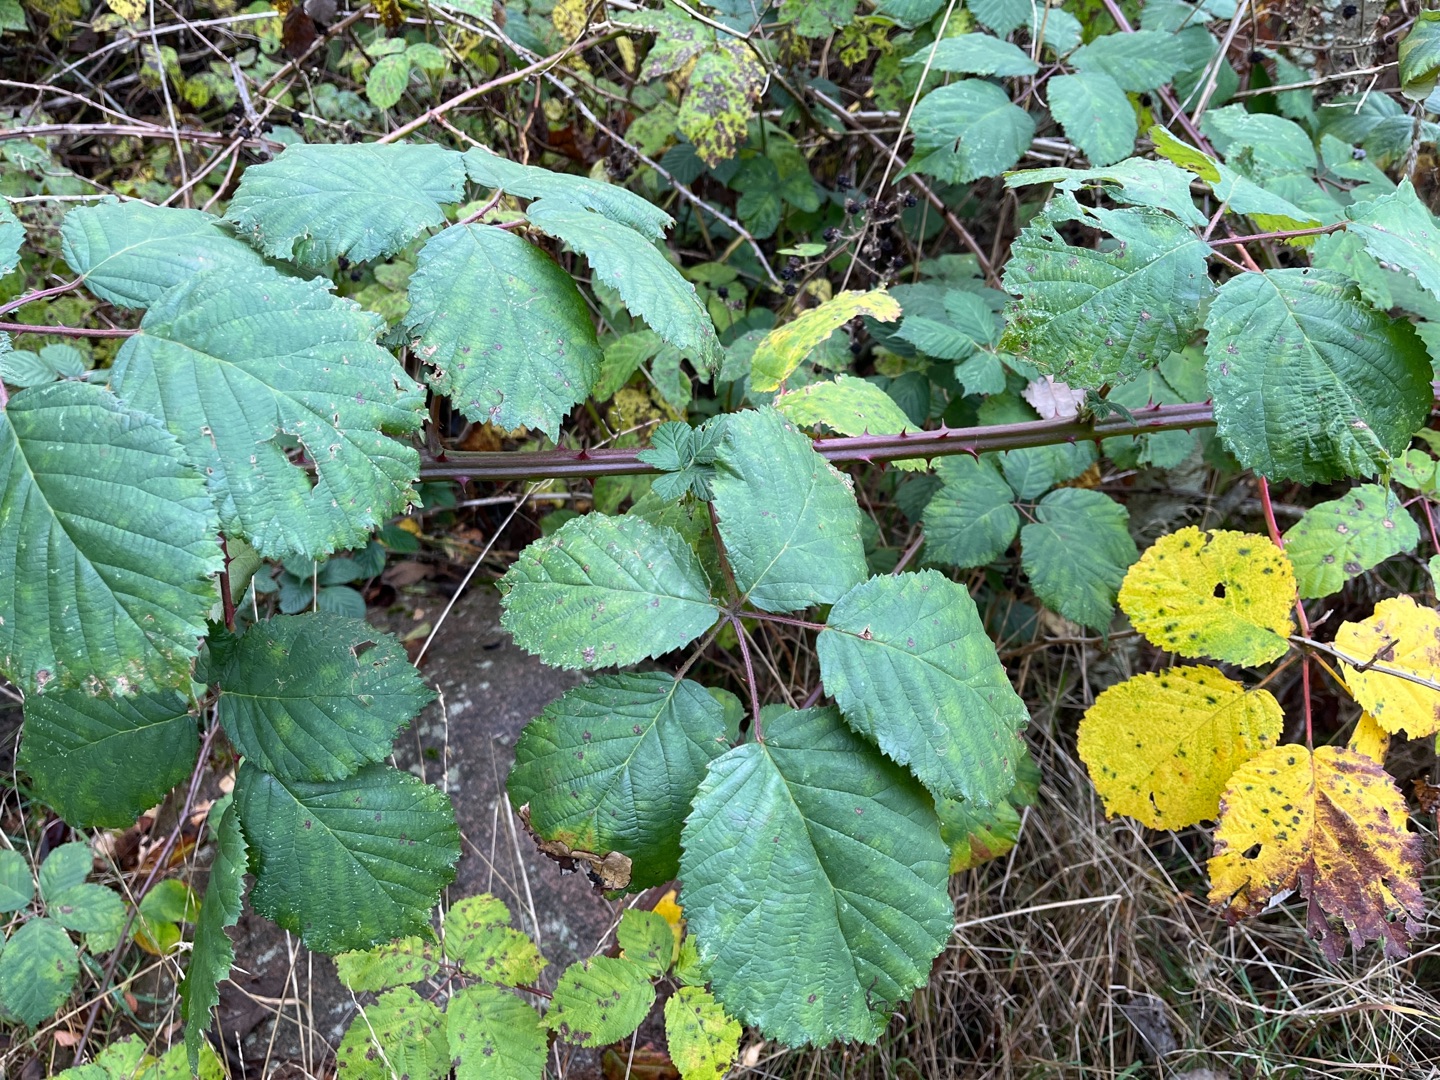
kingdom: Plantae
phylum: Tracheophyta
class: Magnoliopsida
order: Rosales
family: Rosaceae
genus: Rubus
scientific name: Rubus armeniacus
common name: Armensk brombær
